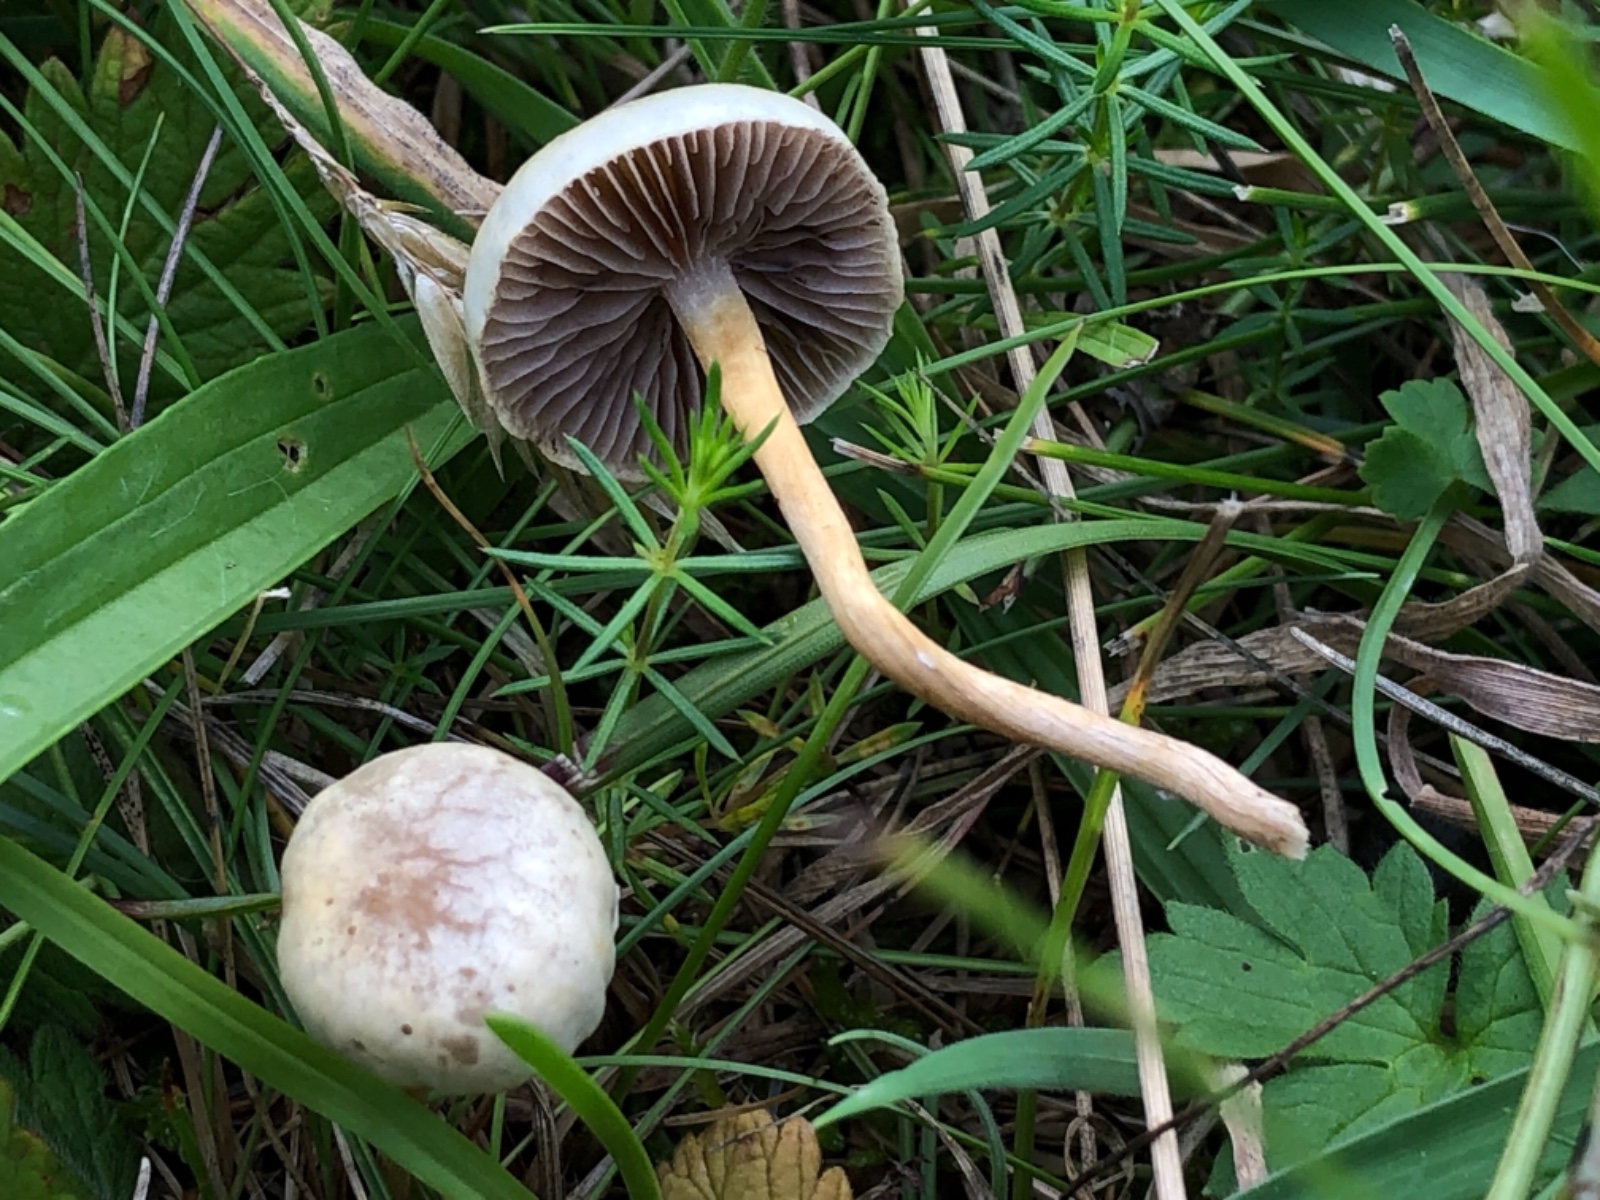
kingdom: Fungi
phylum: Basidiomycota
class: Agaricomycetes
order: Agaricales
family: Strophariaceae
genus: Protostropharia
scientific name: Protostropharia semiglobata
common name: halvkugleformet bredblad
